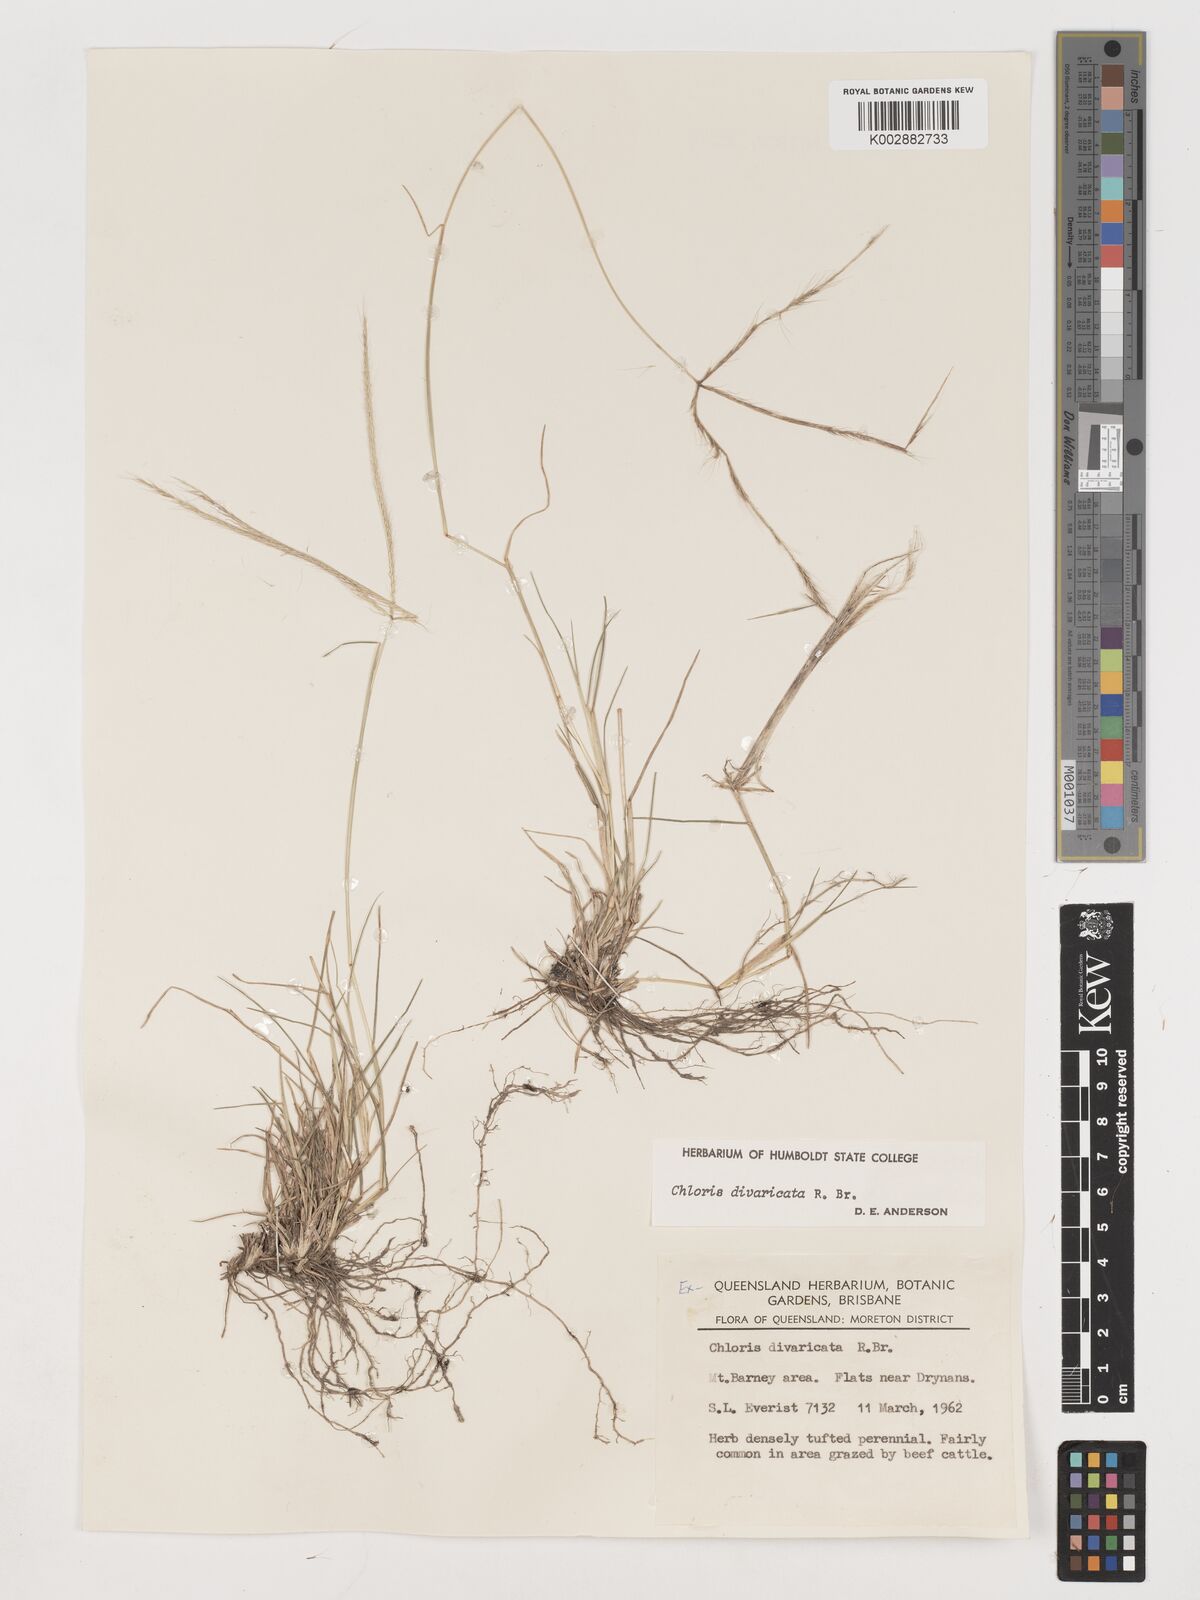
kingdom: Plantae
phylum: Tracheophyta
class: Liliopsida
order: Poales
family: Poaceae
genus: Chloris
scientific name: Chloris divaricata
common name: Spreading windmill grass
